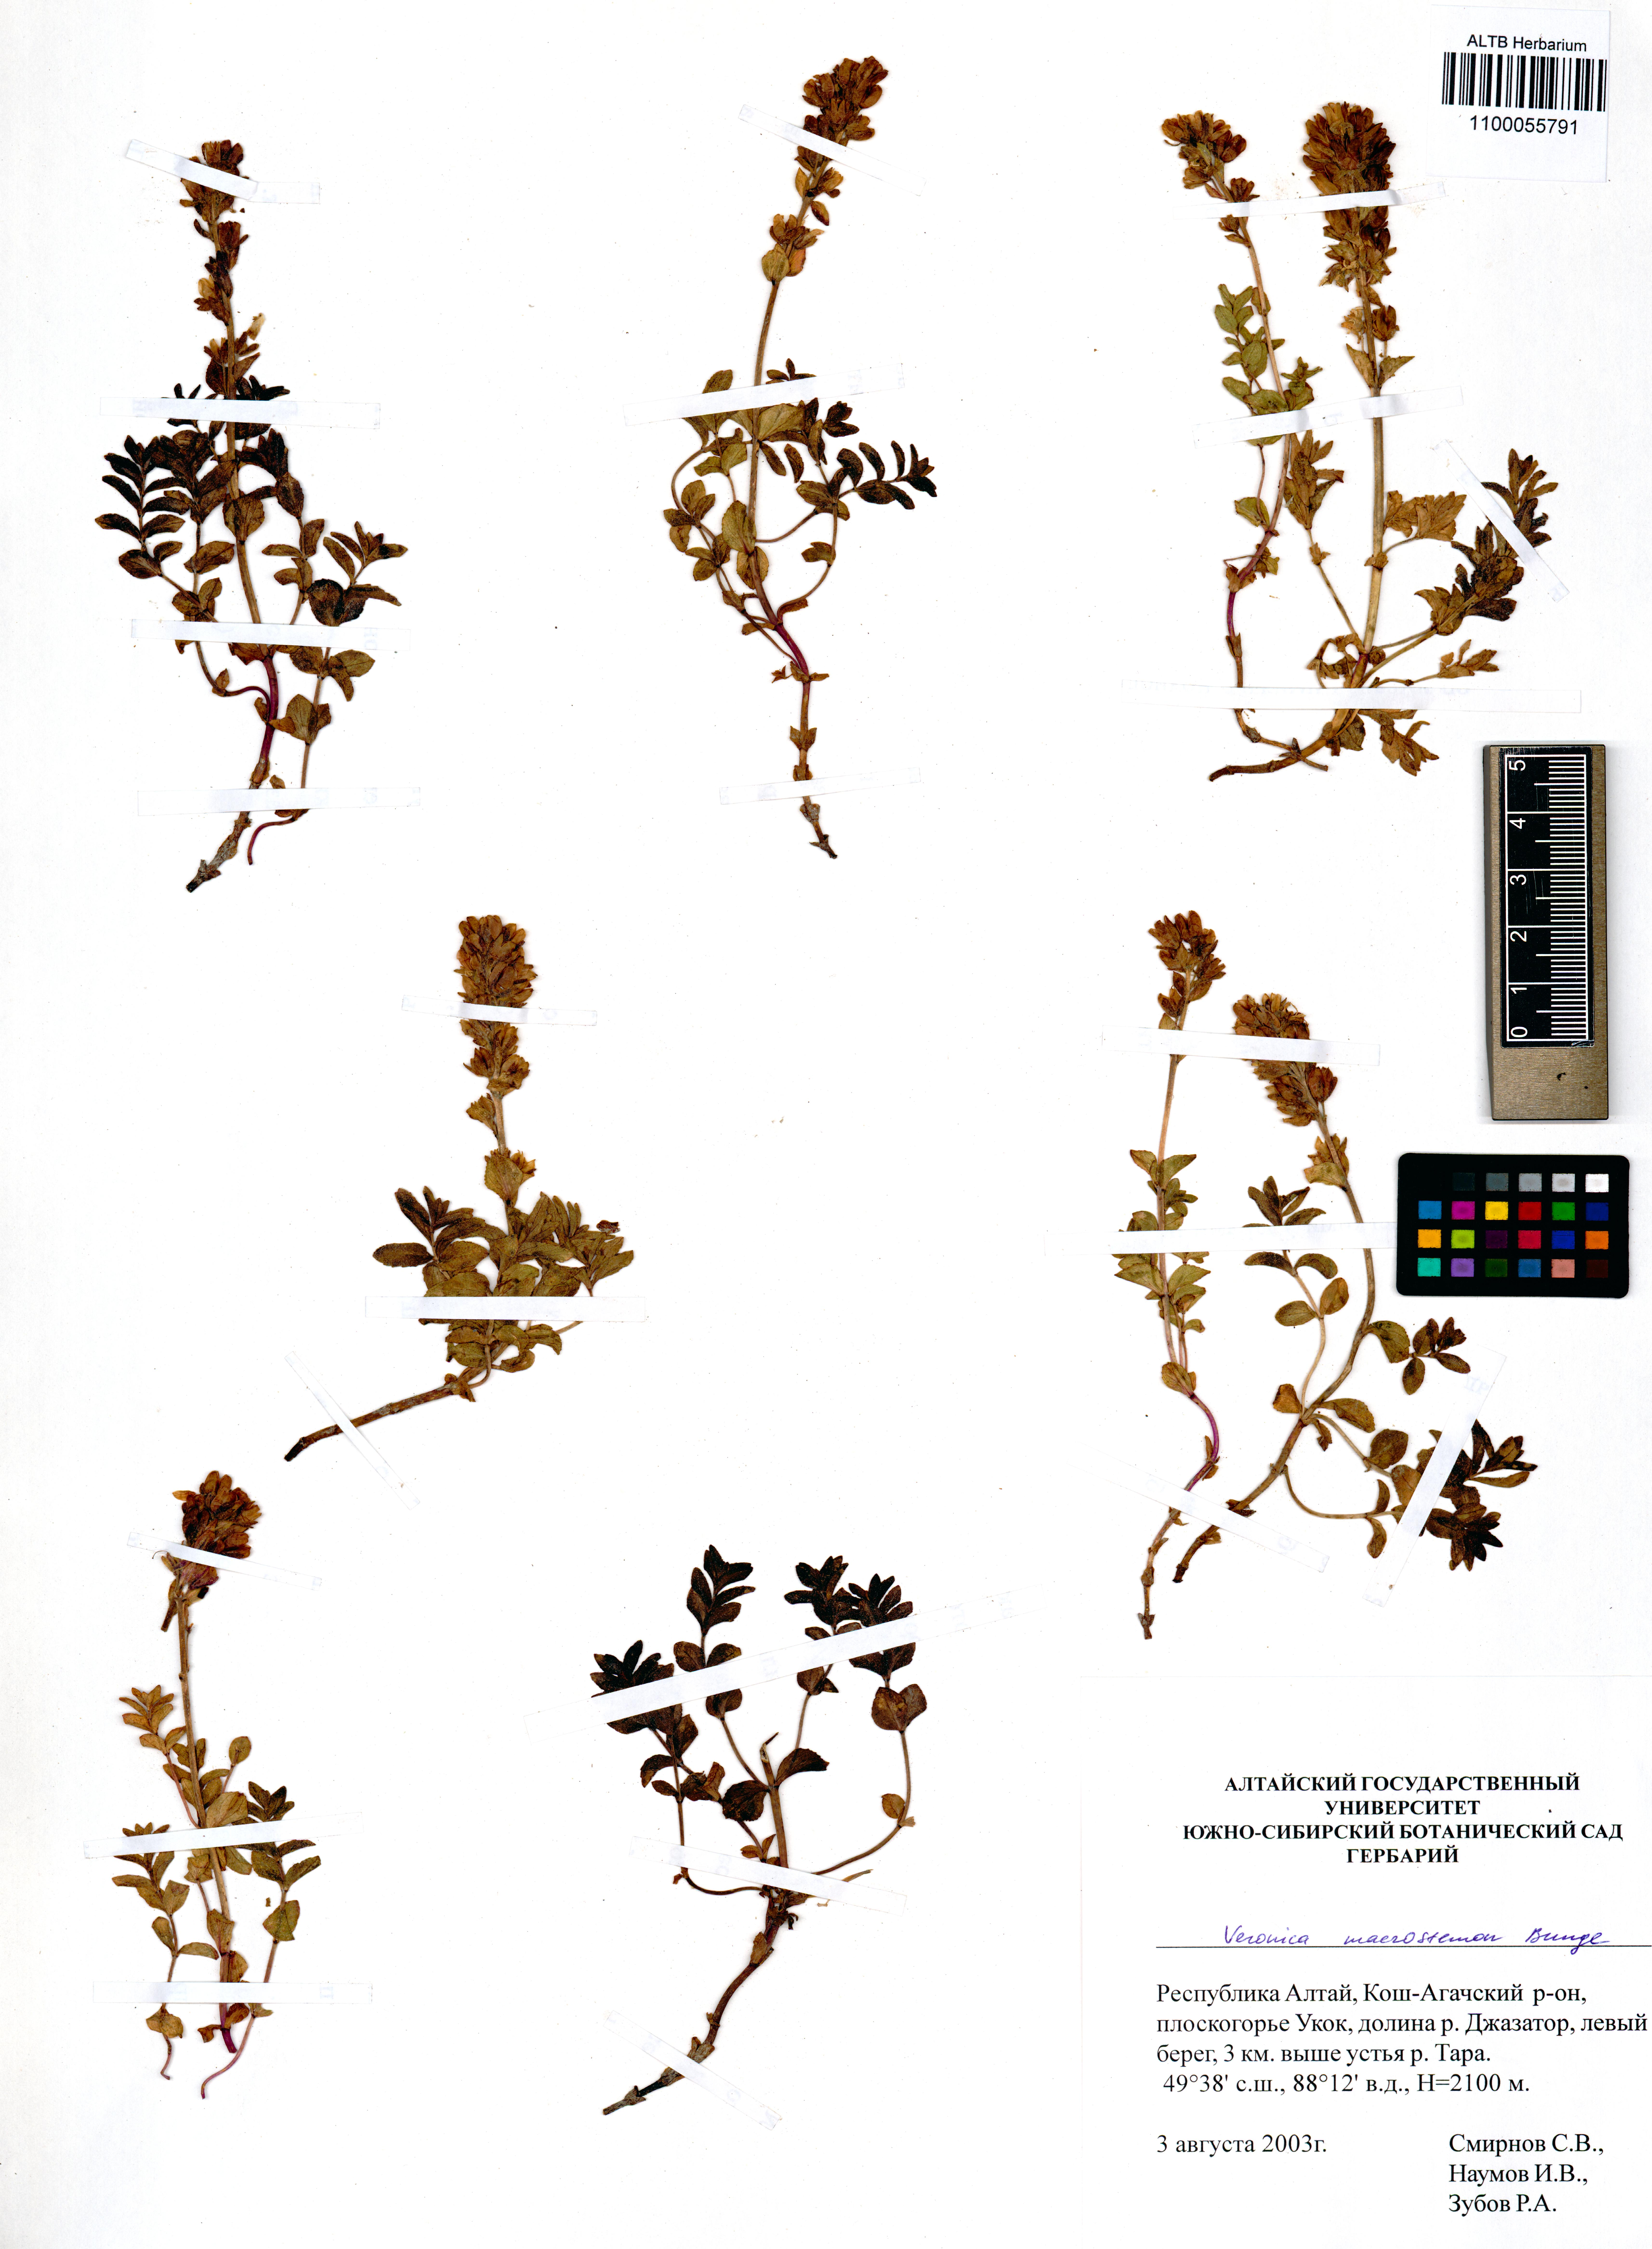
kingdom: Plantae
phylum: Tracheophyta
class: Magnoliopsida
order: Lamiales
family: Plantaginaceae
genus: Veronica
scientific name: Veronica macrostemon
